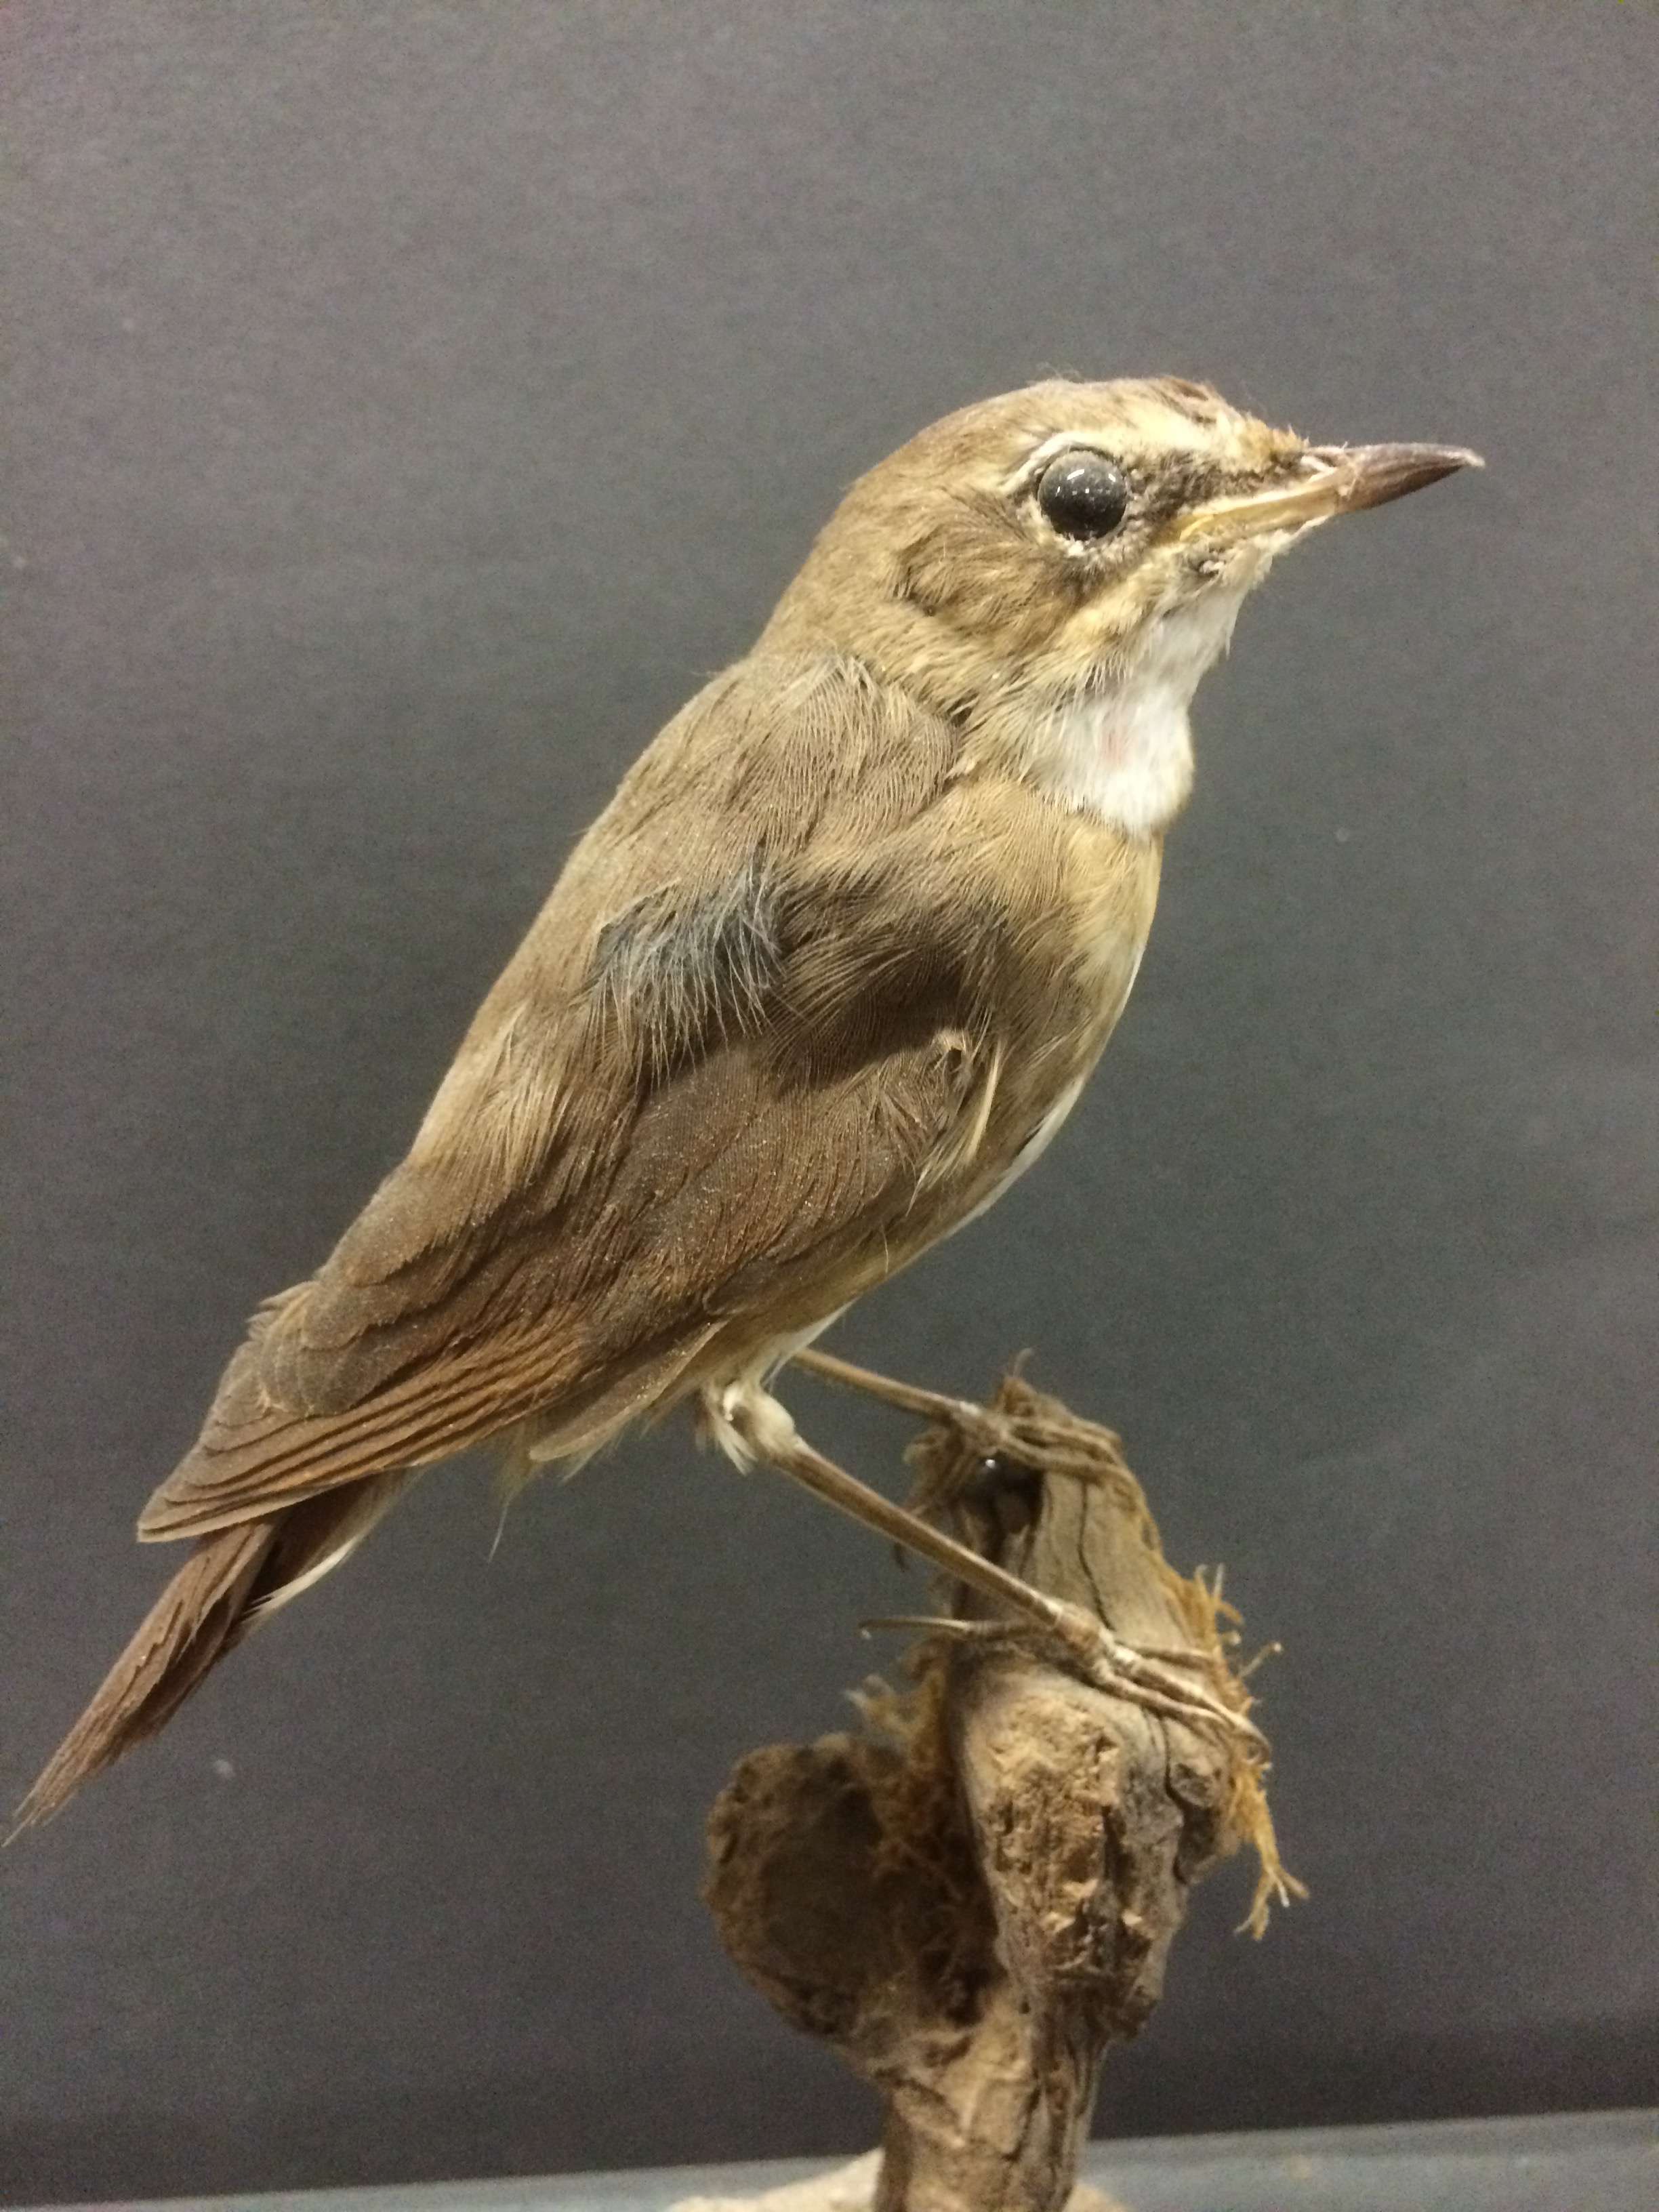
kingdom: Animalia
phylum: Chordata
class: Aves
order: Passeriformes
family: Muscicapidae
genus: Luscinia
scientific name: Luscinia calliope
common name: Siberian rubythroat
